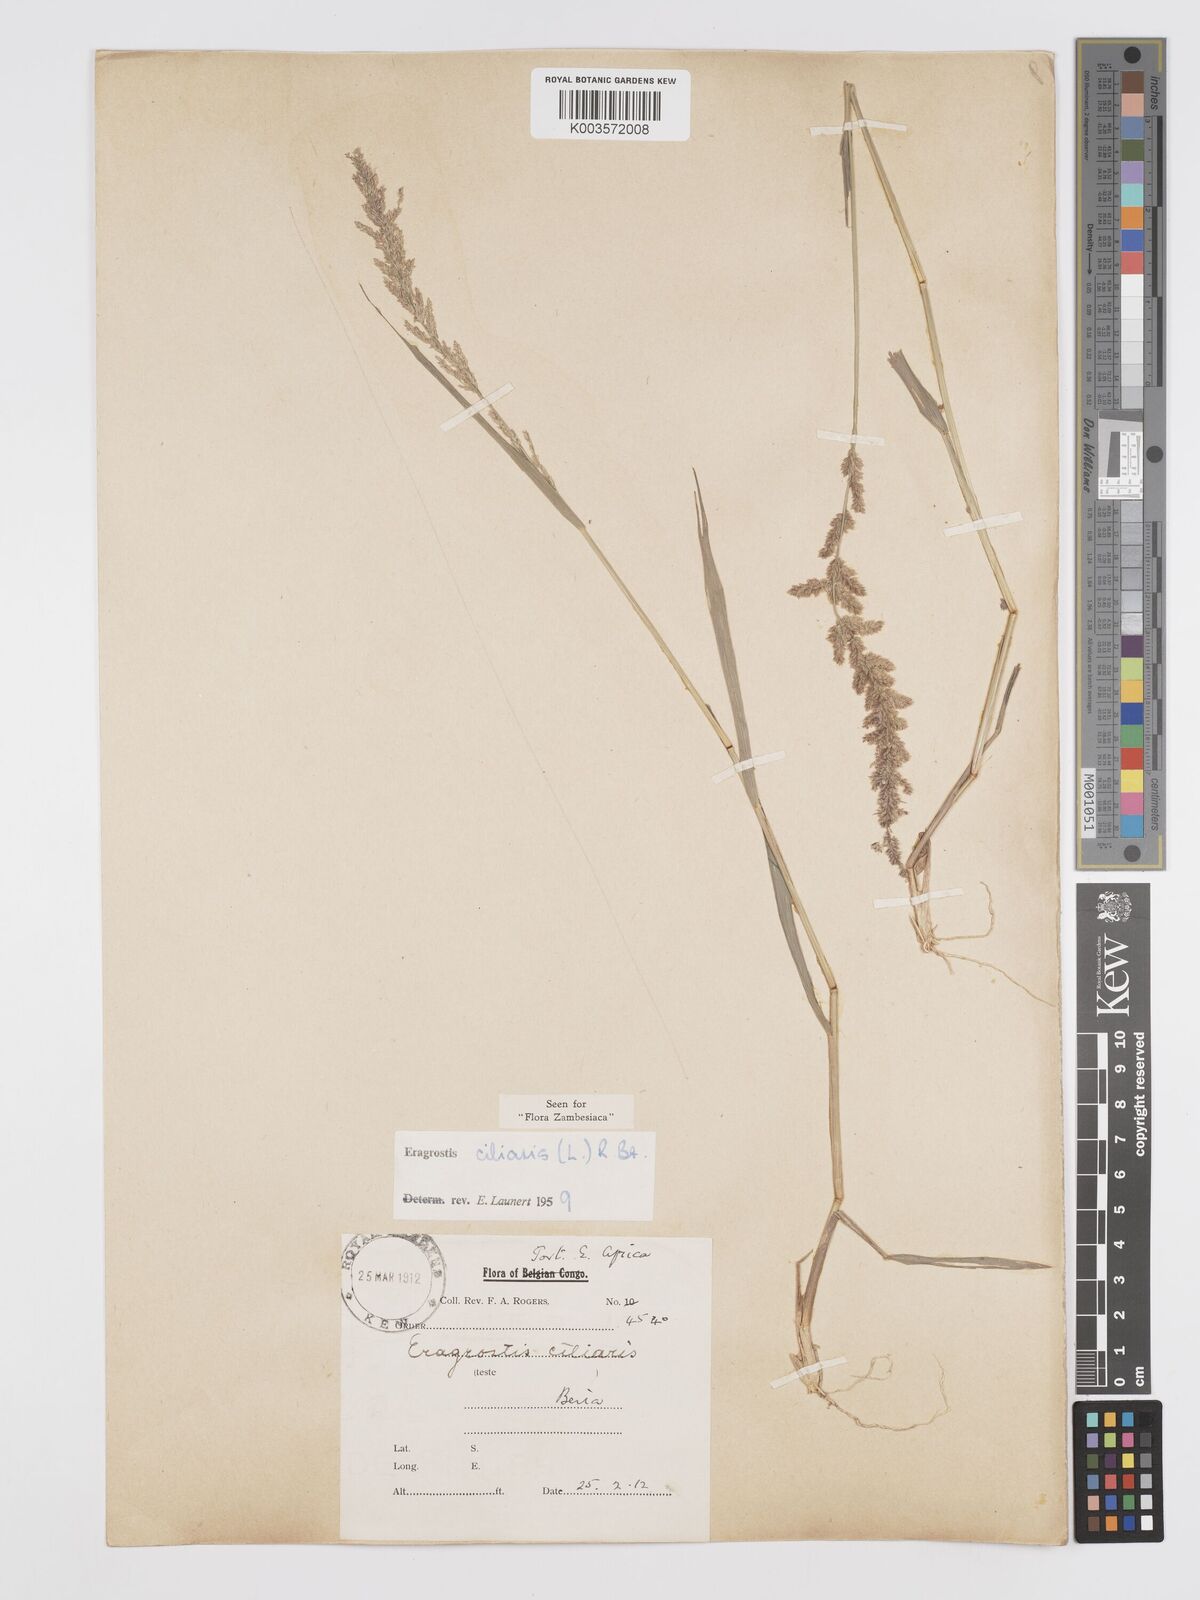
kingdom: Plantae
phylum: Tracheophyta
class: Liliopsida
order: Poales
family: Poaceae
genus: Eragrostis
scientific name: Eragrostis ciliaris
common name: Gophertail lovegrass
